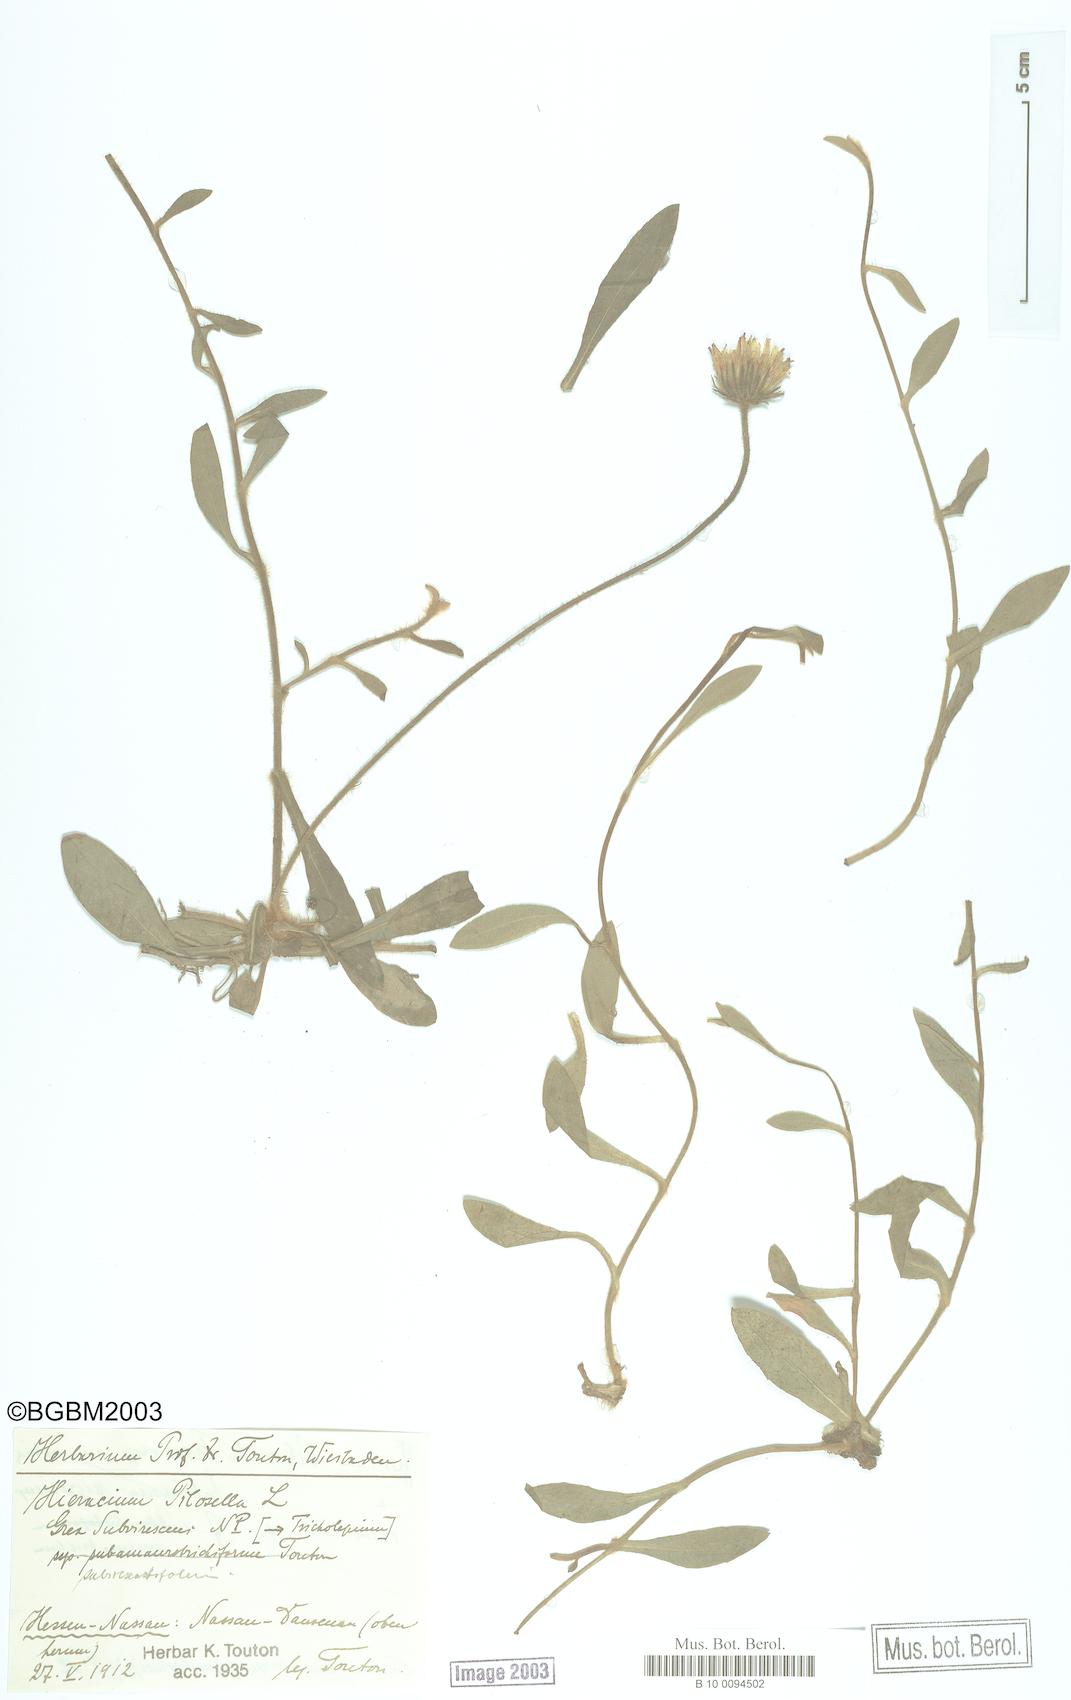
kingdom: Plantae
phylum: Tracheophyta
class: Magnoliopsida
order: Asterales
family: Asteraceae
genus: Pilosella
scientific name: Pilosella officinarum
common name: Mouse-ear hawkweed
